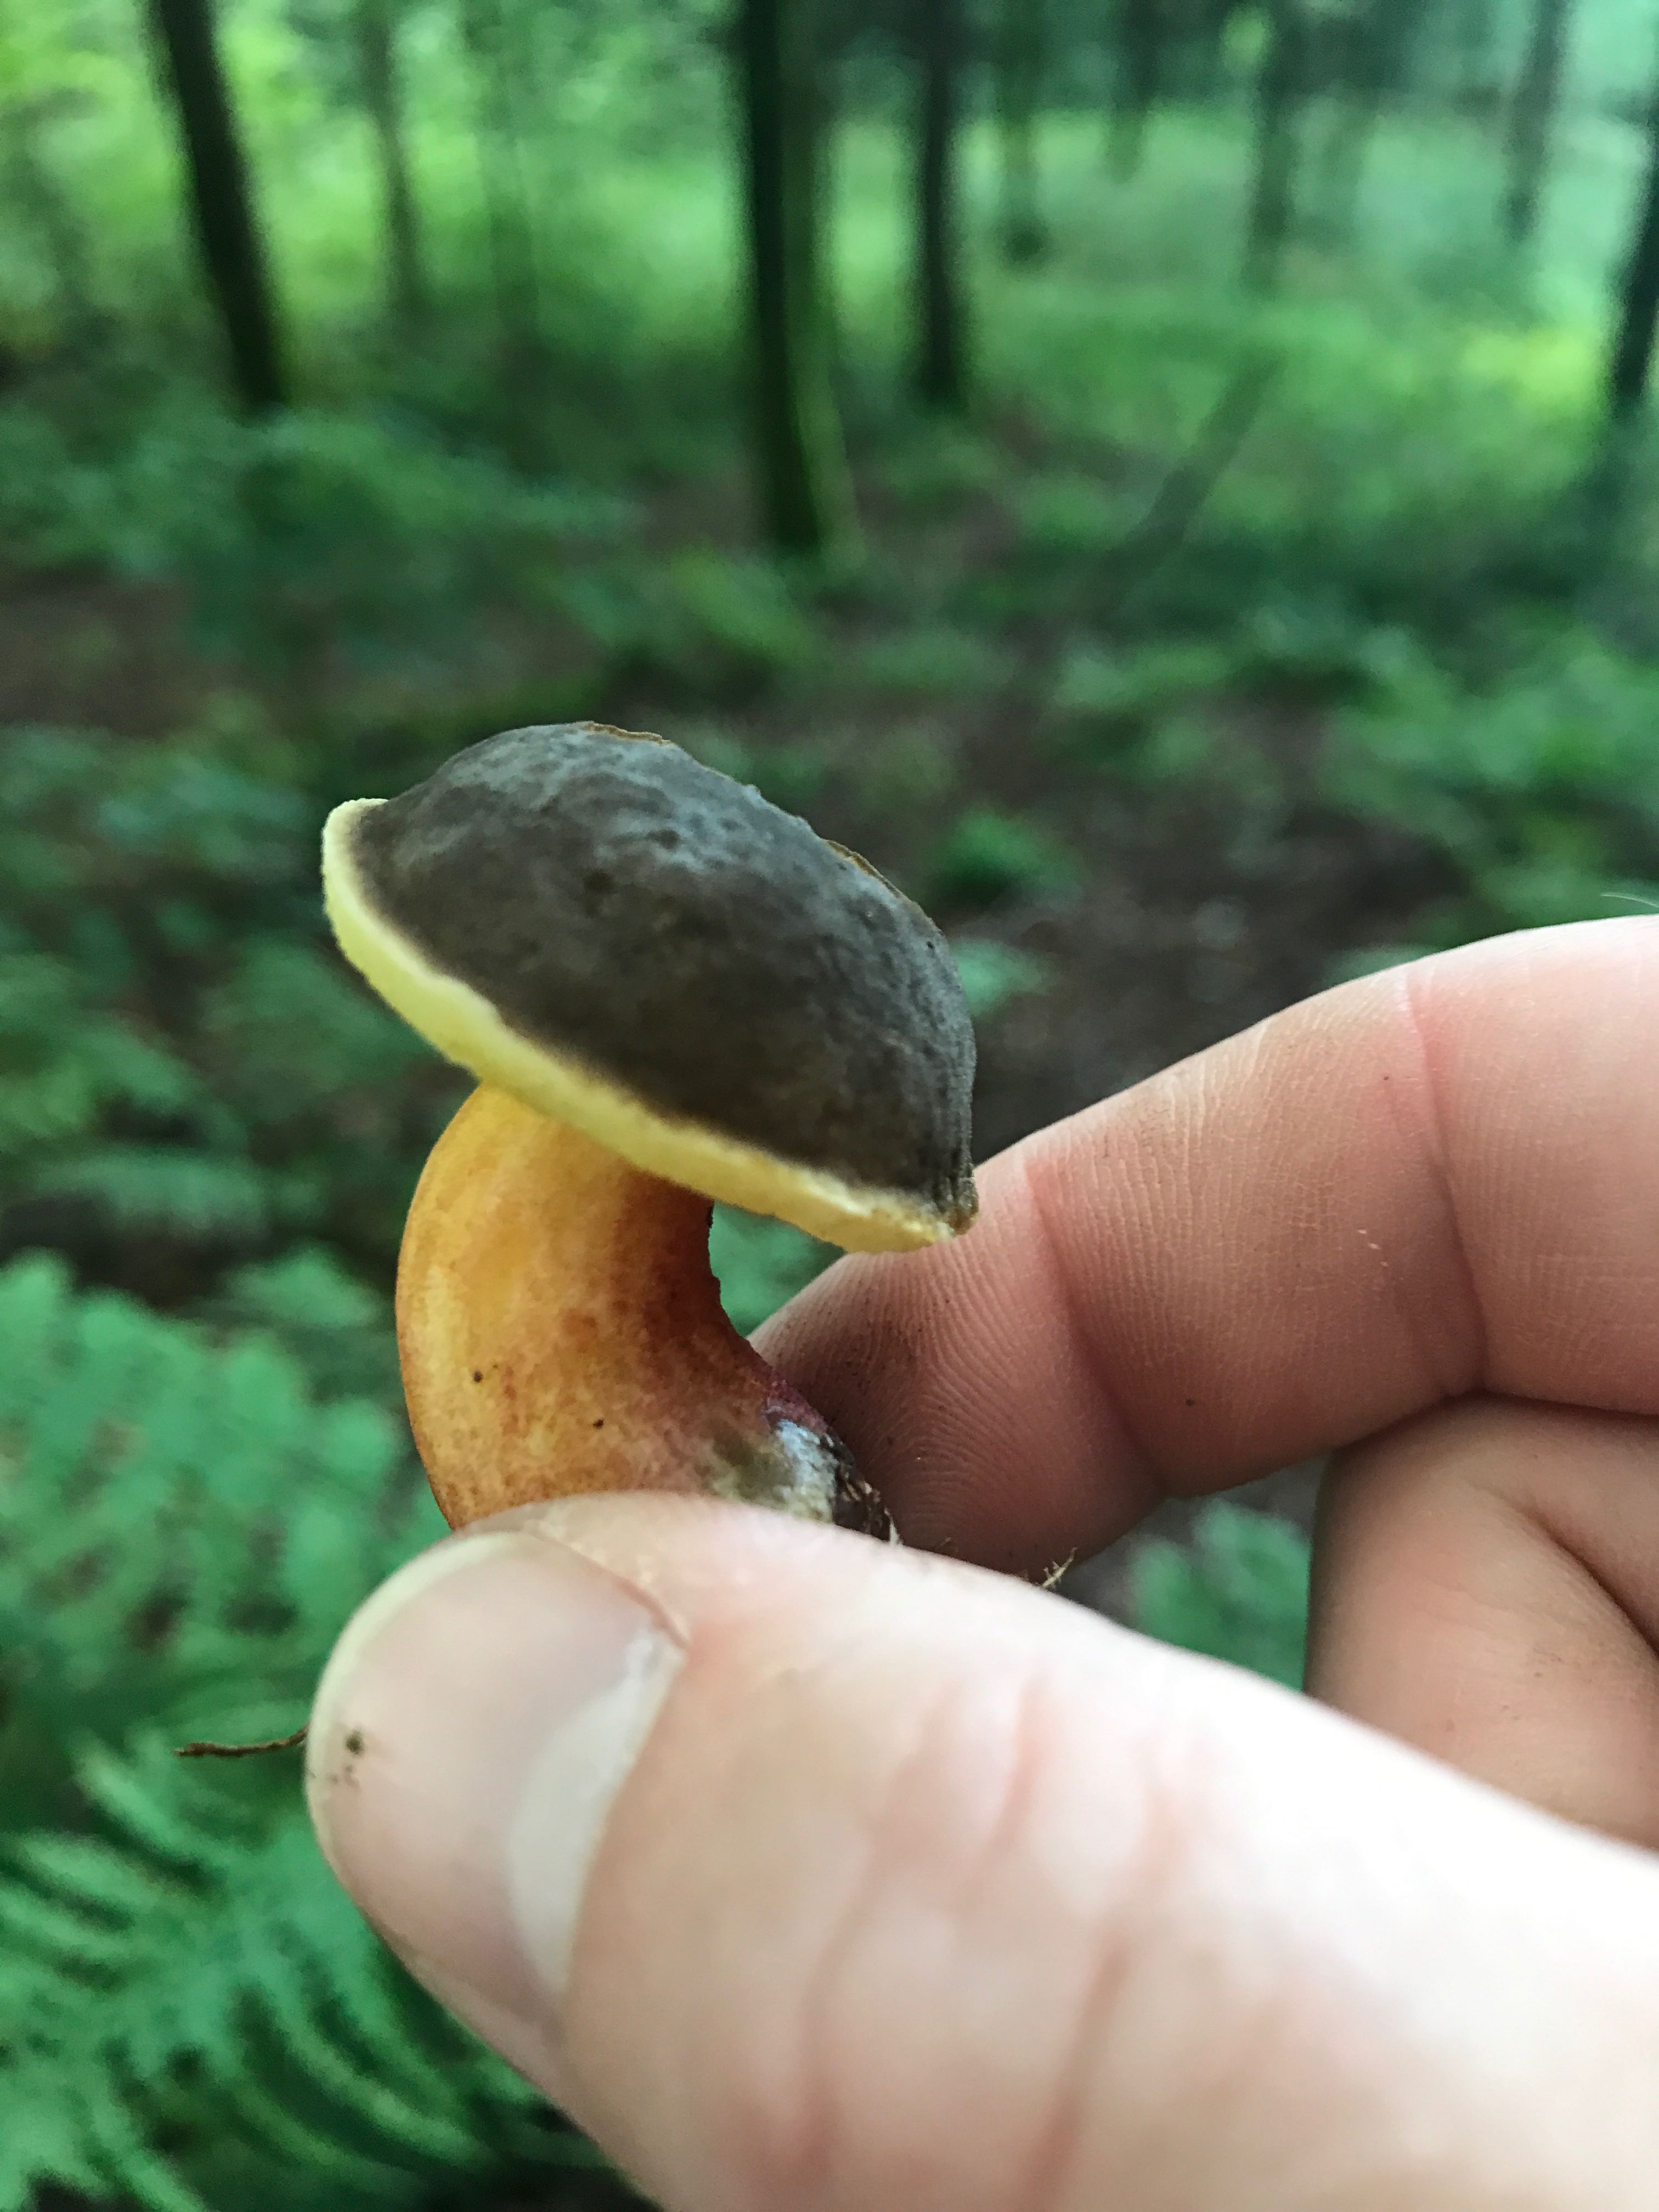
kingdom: Fungi
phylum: Basidiomycota
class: Agaricomycetes
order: Boletales
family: Boletaceae
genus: Xerocomellus
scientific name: Xerocomellus pruinatus
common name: dugget rørhat
